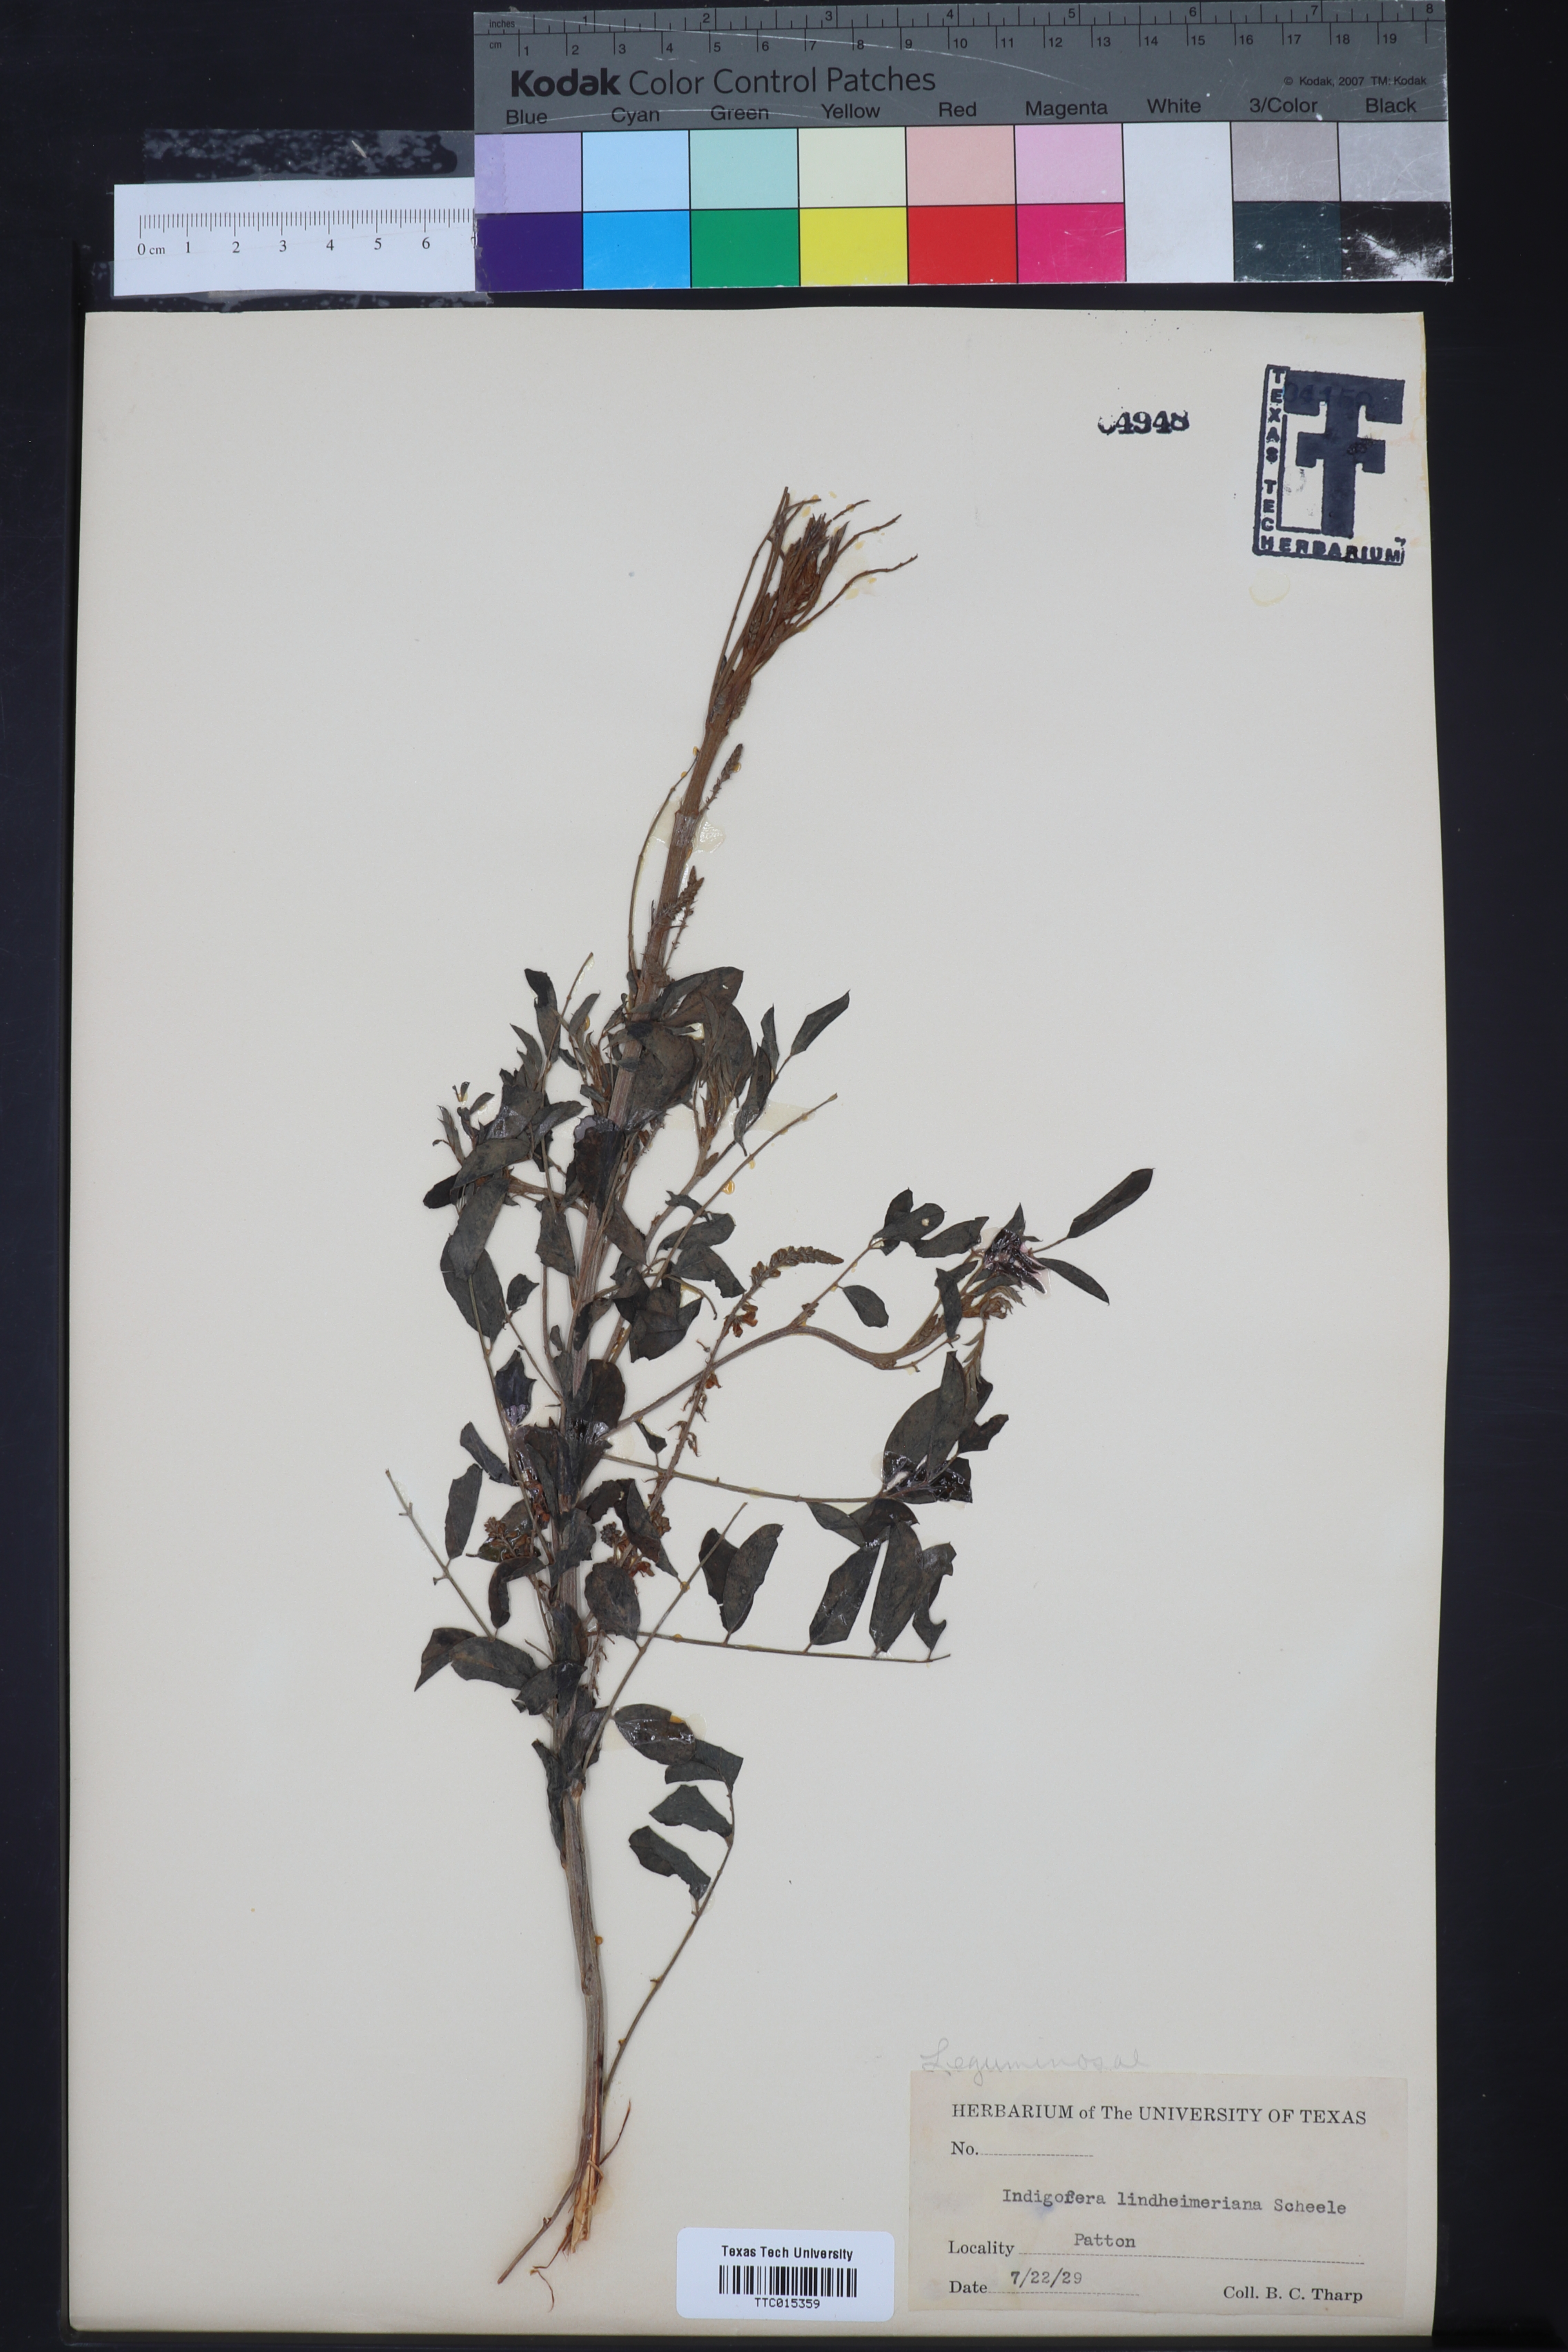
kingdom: Plantae
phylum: Tracheophyta
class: Magnoliopsida
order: Fabales
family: Fabaceae
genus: Indigofera
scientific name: Indigofera lindheimeriana
